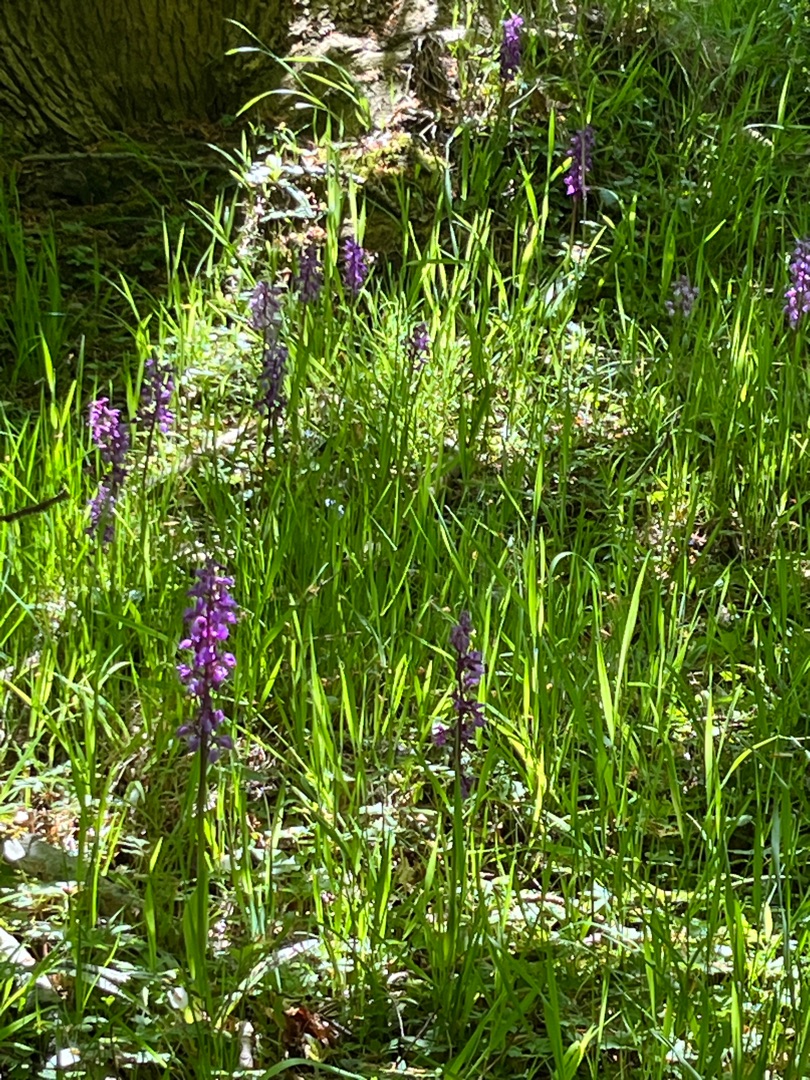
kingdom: Plantae
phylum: Tracheophyta
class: Liliopsida
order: Asparagales
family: Orchidaceae
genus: Orchis
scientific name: Orchis mascula
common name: Tyndakset gøgeurt
